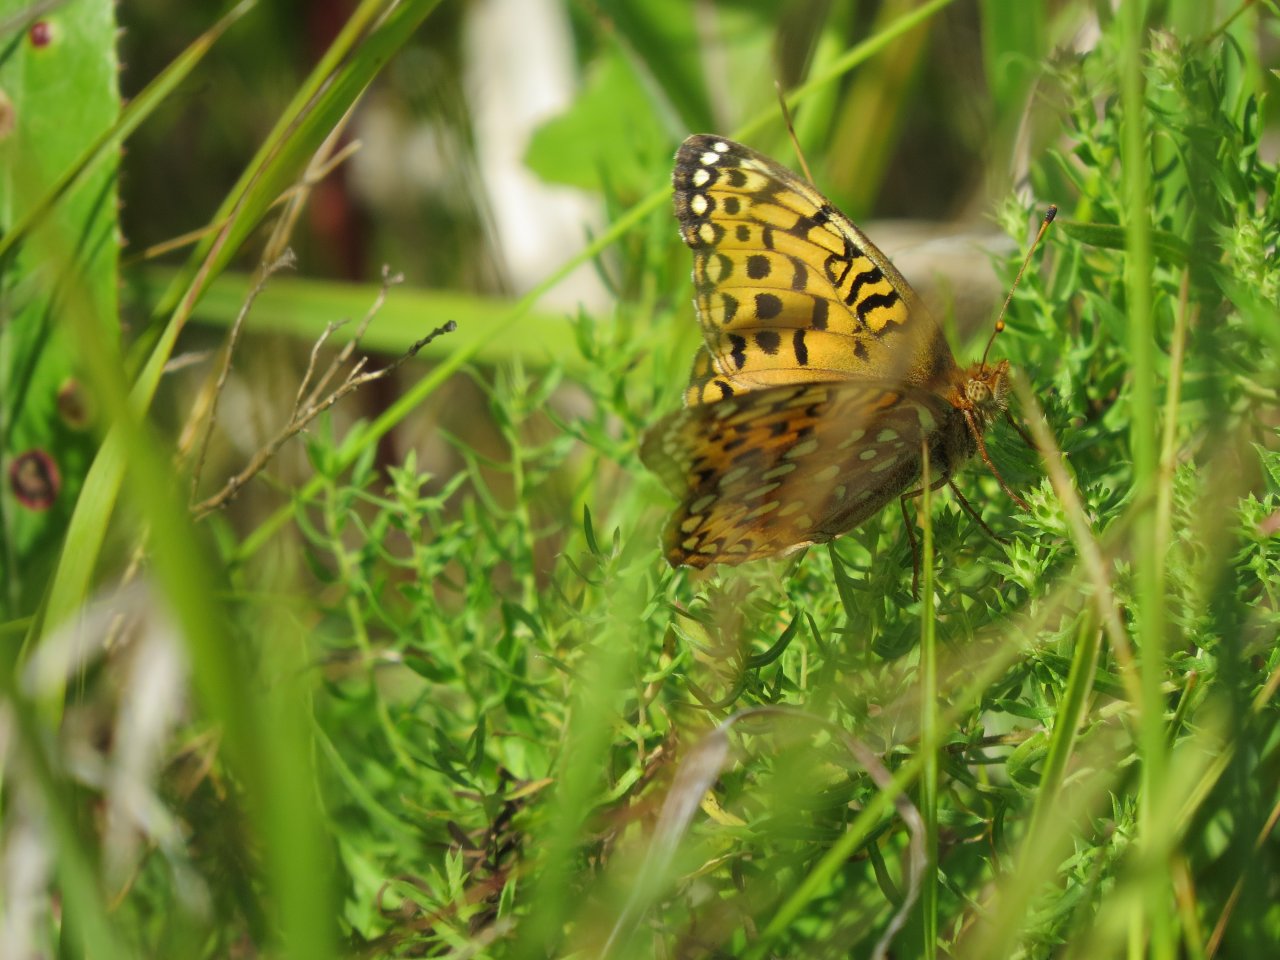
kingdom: Animalia
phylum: Arthropoda
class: Insecta
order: Lepidoptera
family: Nymphalidae
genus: Speyeria
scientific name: Speyeria cybele
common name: Great Spangled Fritillary
